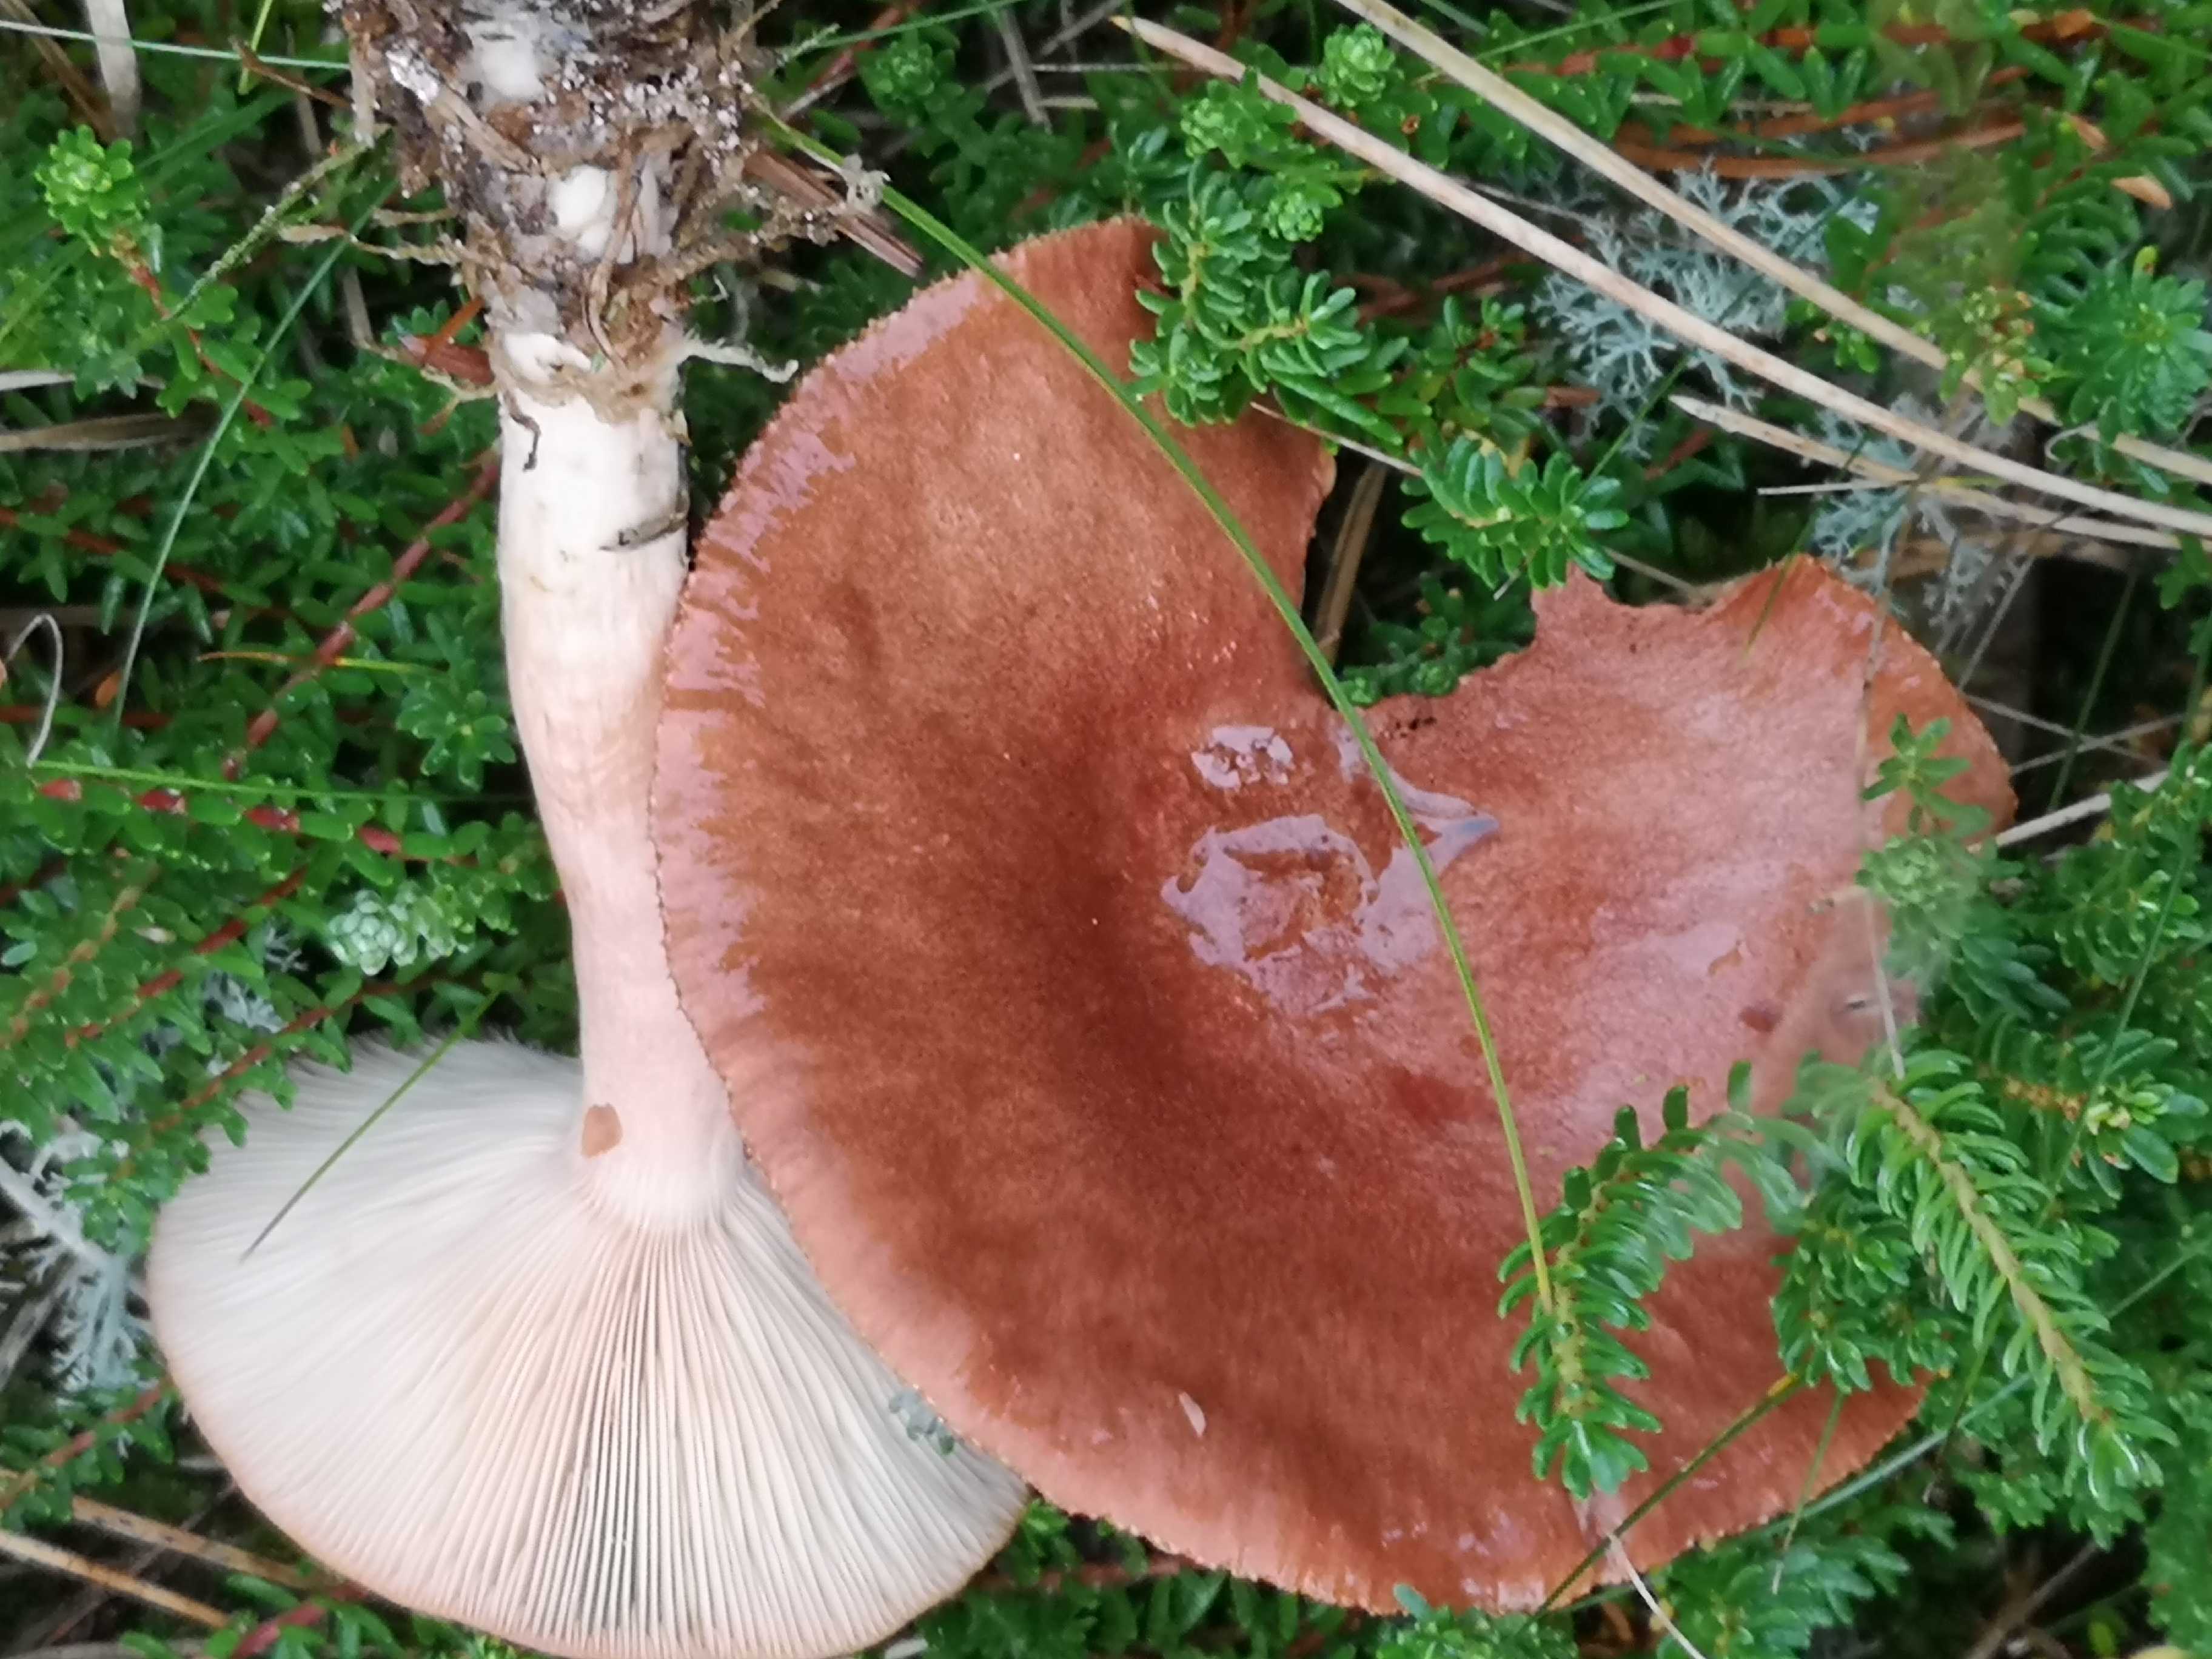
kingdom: Fungi
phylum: Basidiomycota
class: Agaricomycetes
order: Russulales
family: Russulaceae
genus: Lactarius
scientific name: Lactarius rufus
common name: rødbrun mælkehat
